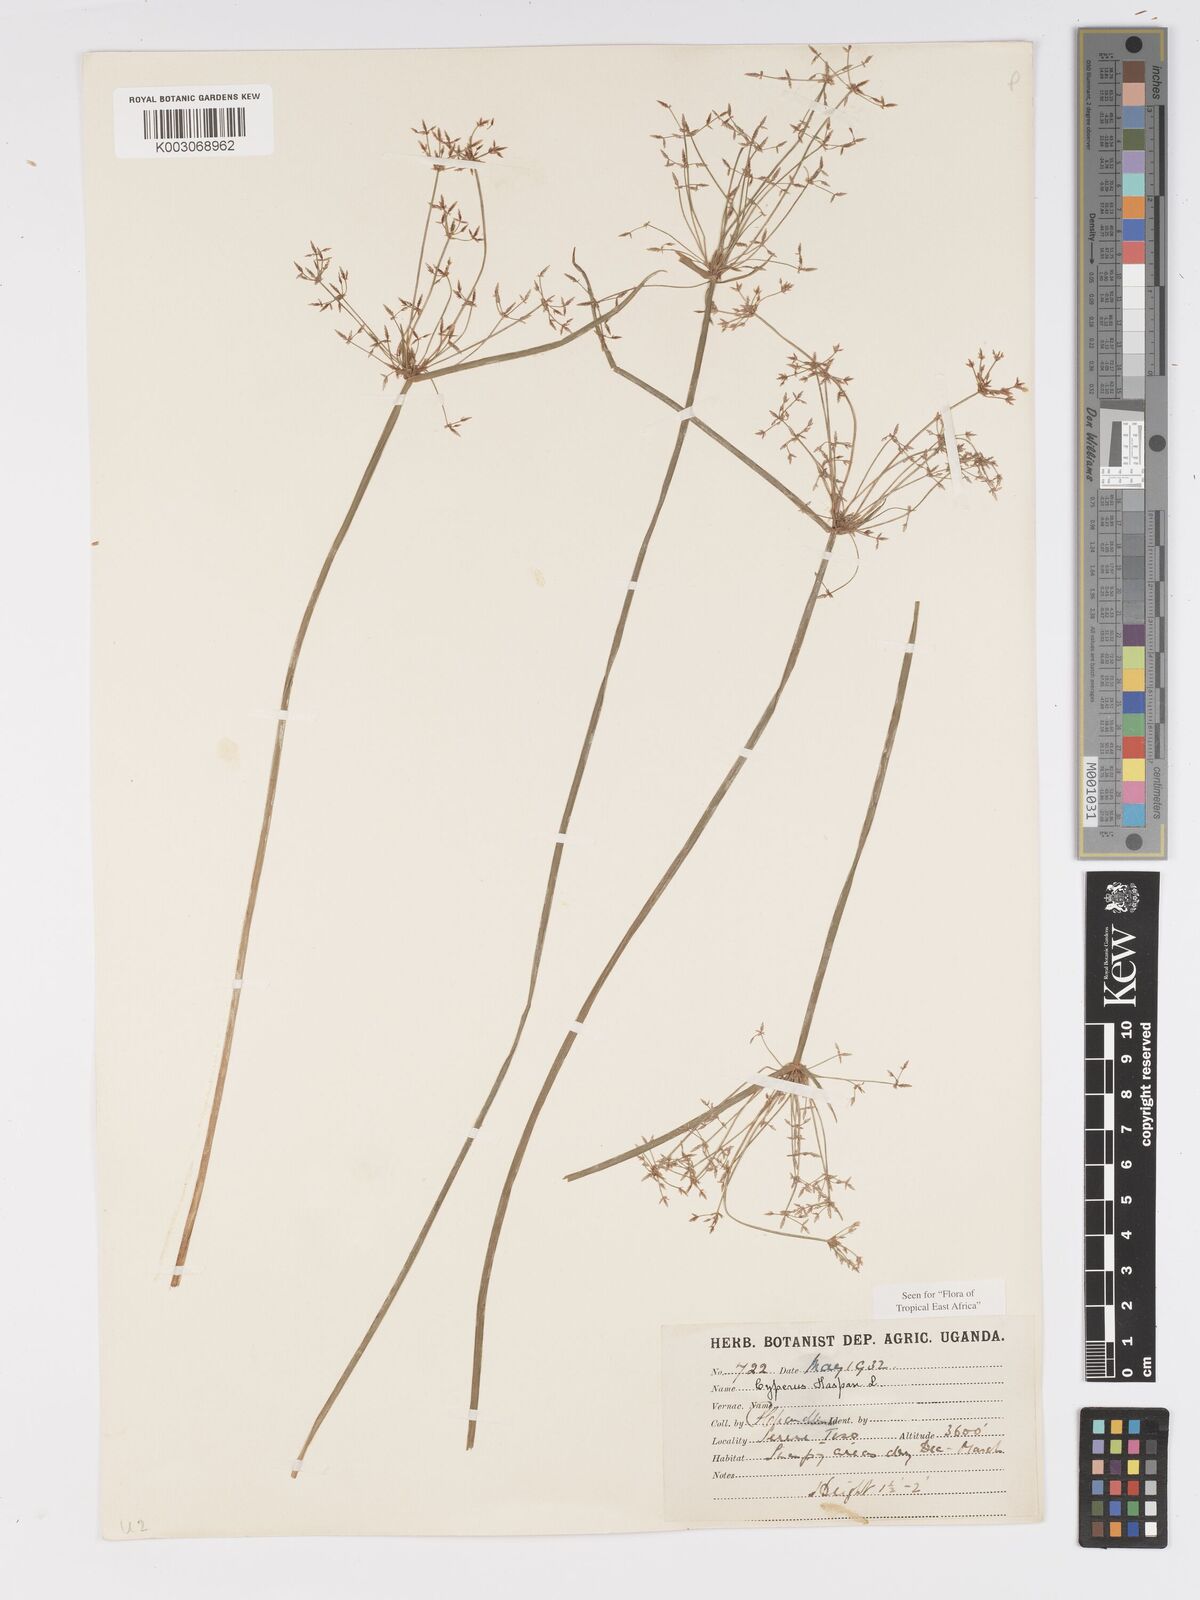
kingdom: Plantae
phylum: Tracheophyta
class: Liliopsida
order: Poales
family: Cyperaceae
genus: Cyperus
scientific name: Cyperus haspan
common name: Haspan flatsedge
